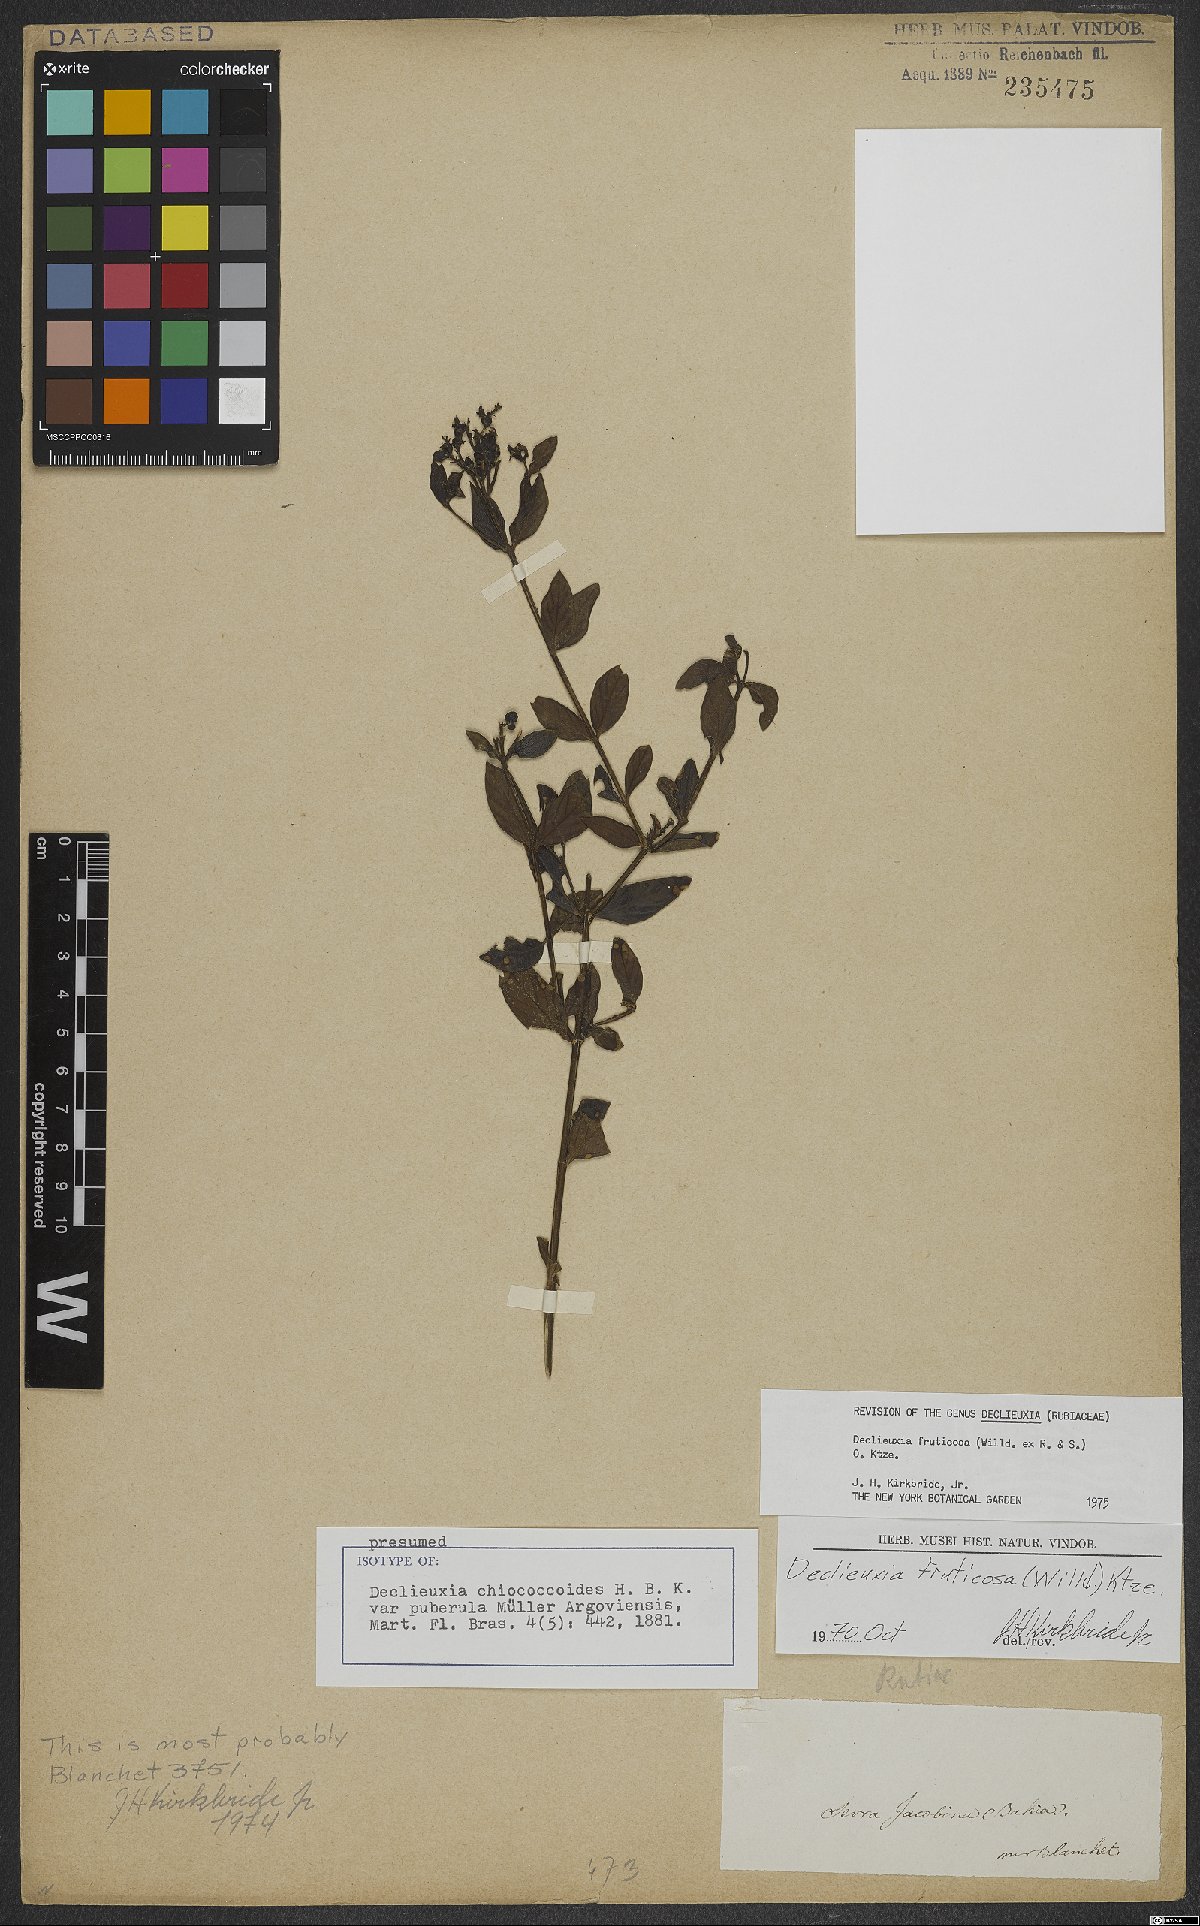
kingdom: Plantae
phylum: Tracheophyta
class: Magnoliopsida
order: Gentianales
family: Rubiaceae
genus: Declieuxia
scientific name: Declieuxia fruticosa
